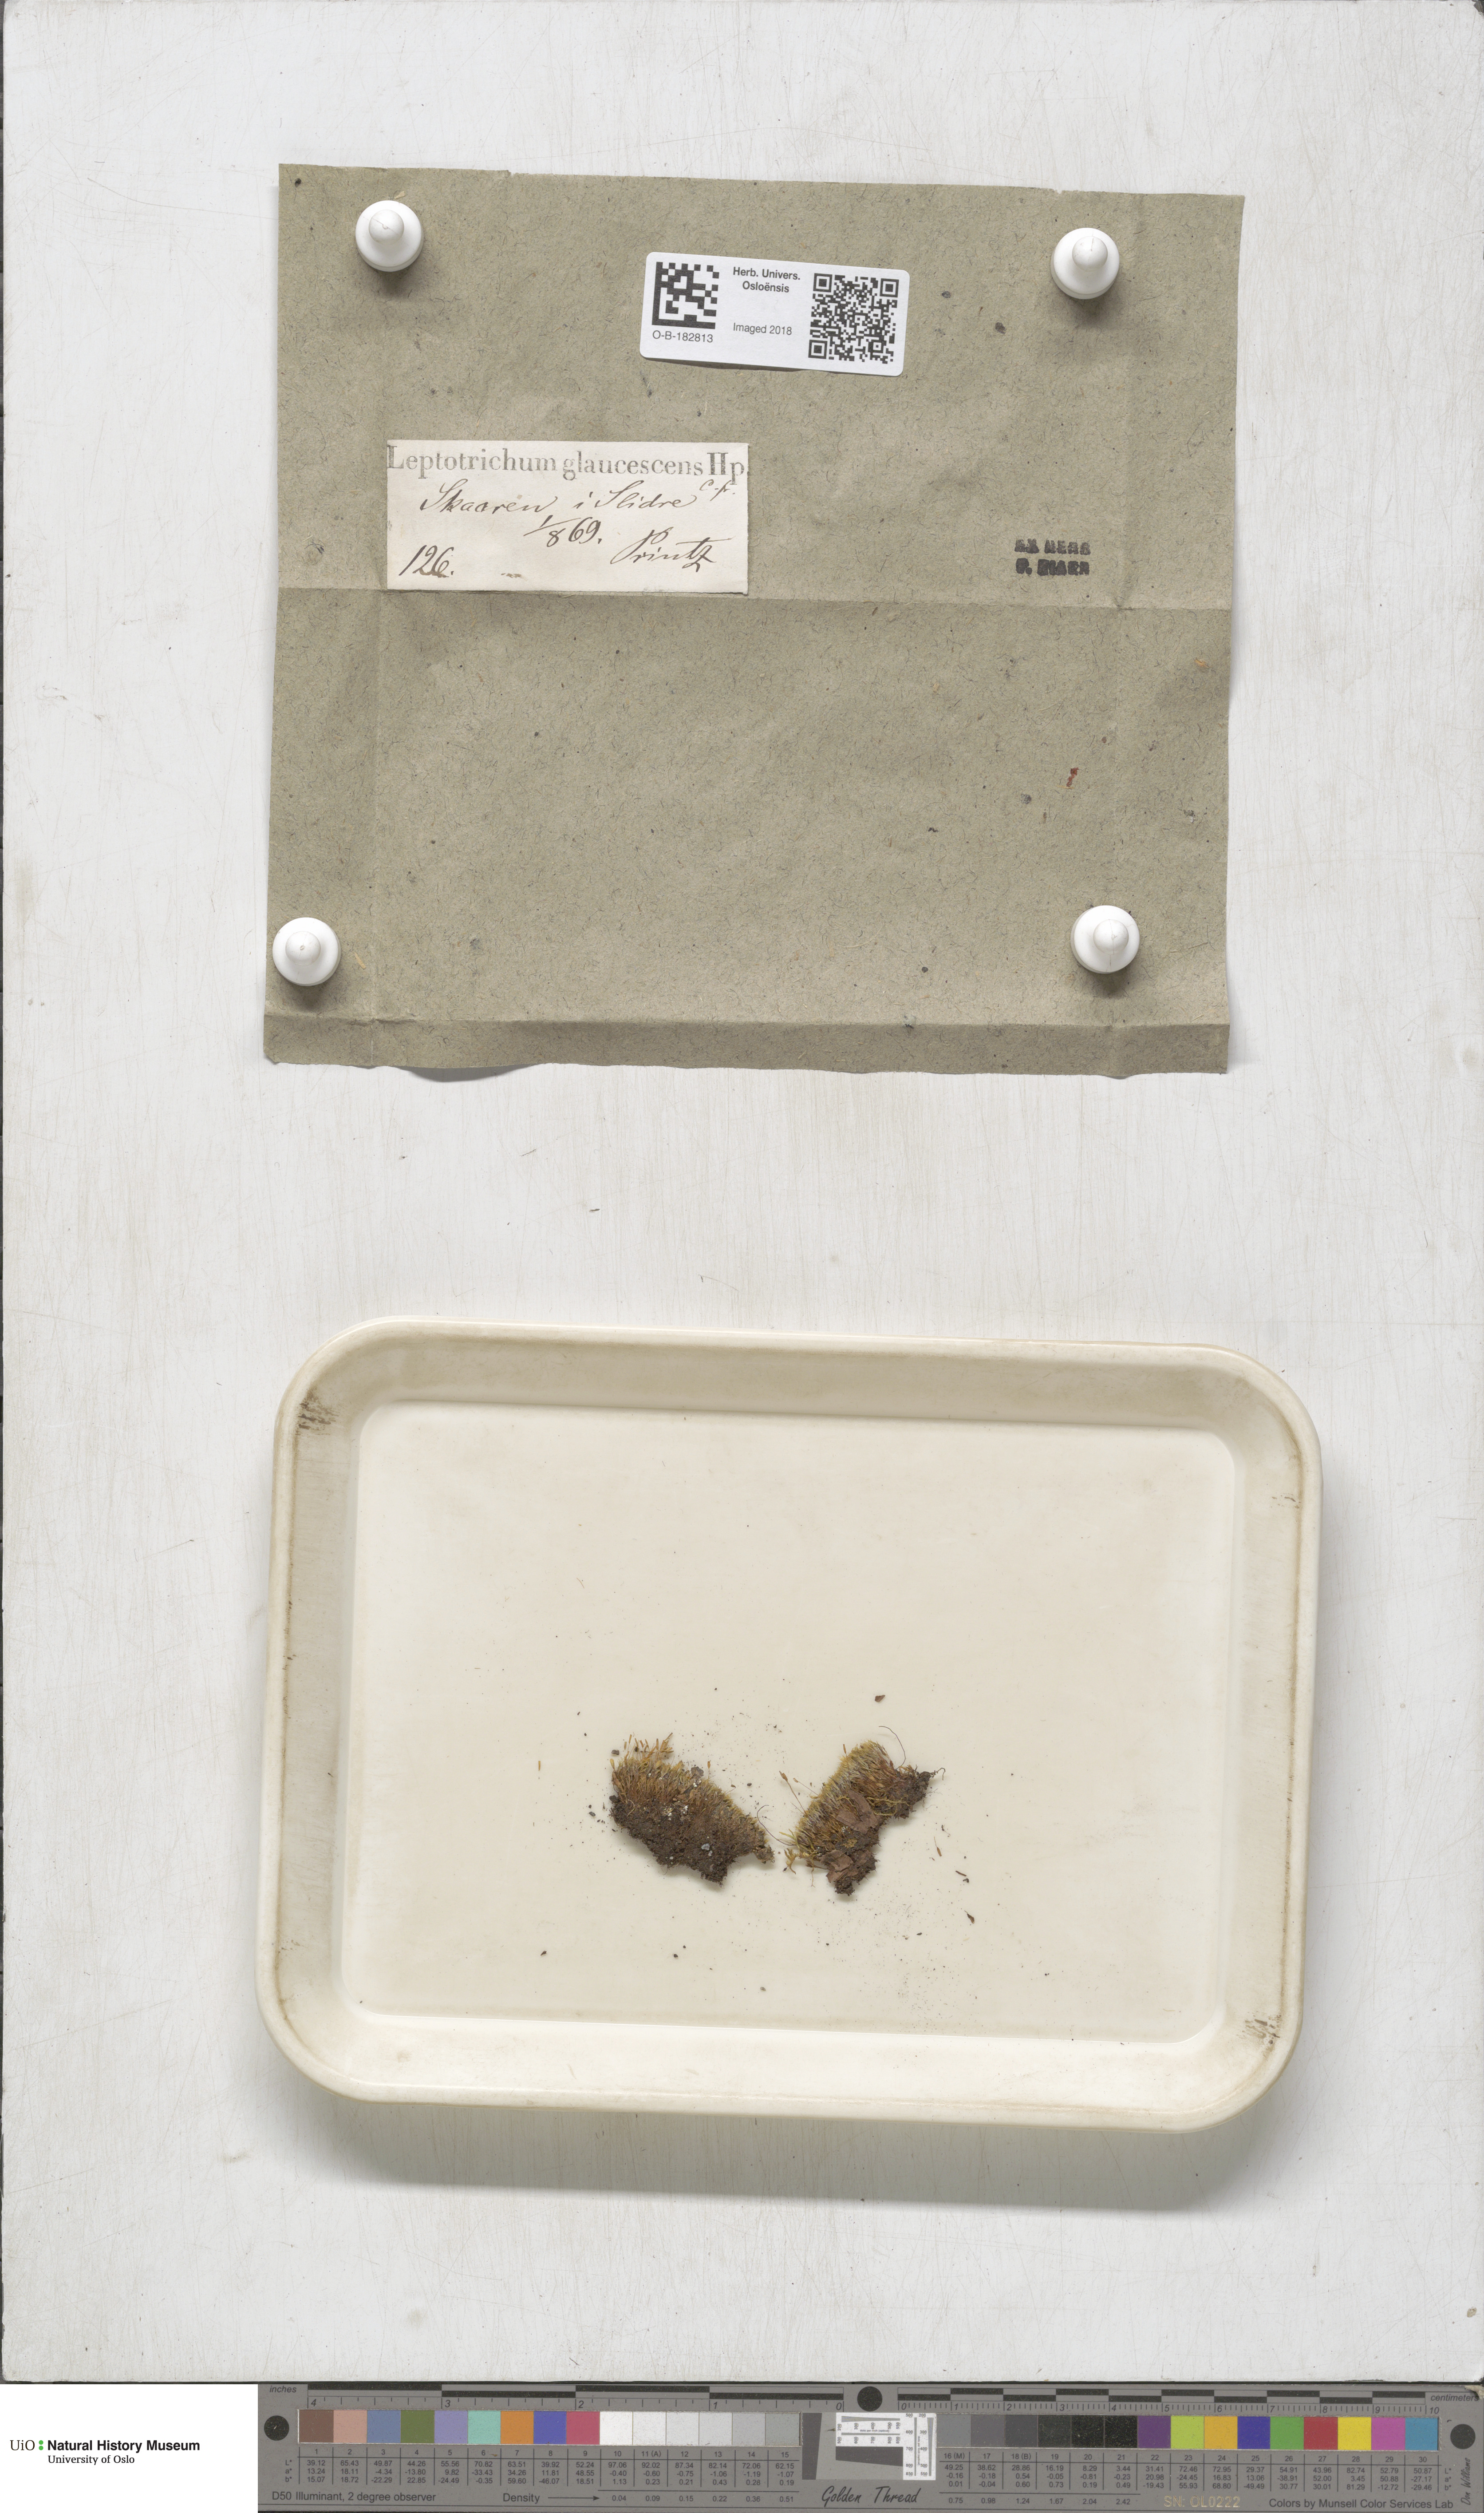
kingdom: Plantae
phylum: Bryophyta
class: Bryopsida
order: Grimmiales
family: Saelaniaceae
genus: Saelania
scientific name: Saelania glaucescens
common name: Blue dew-moss
